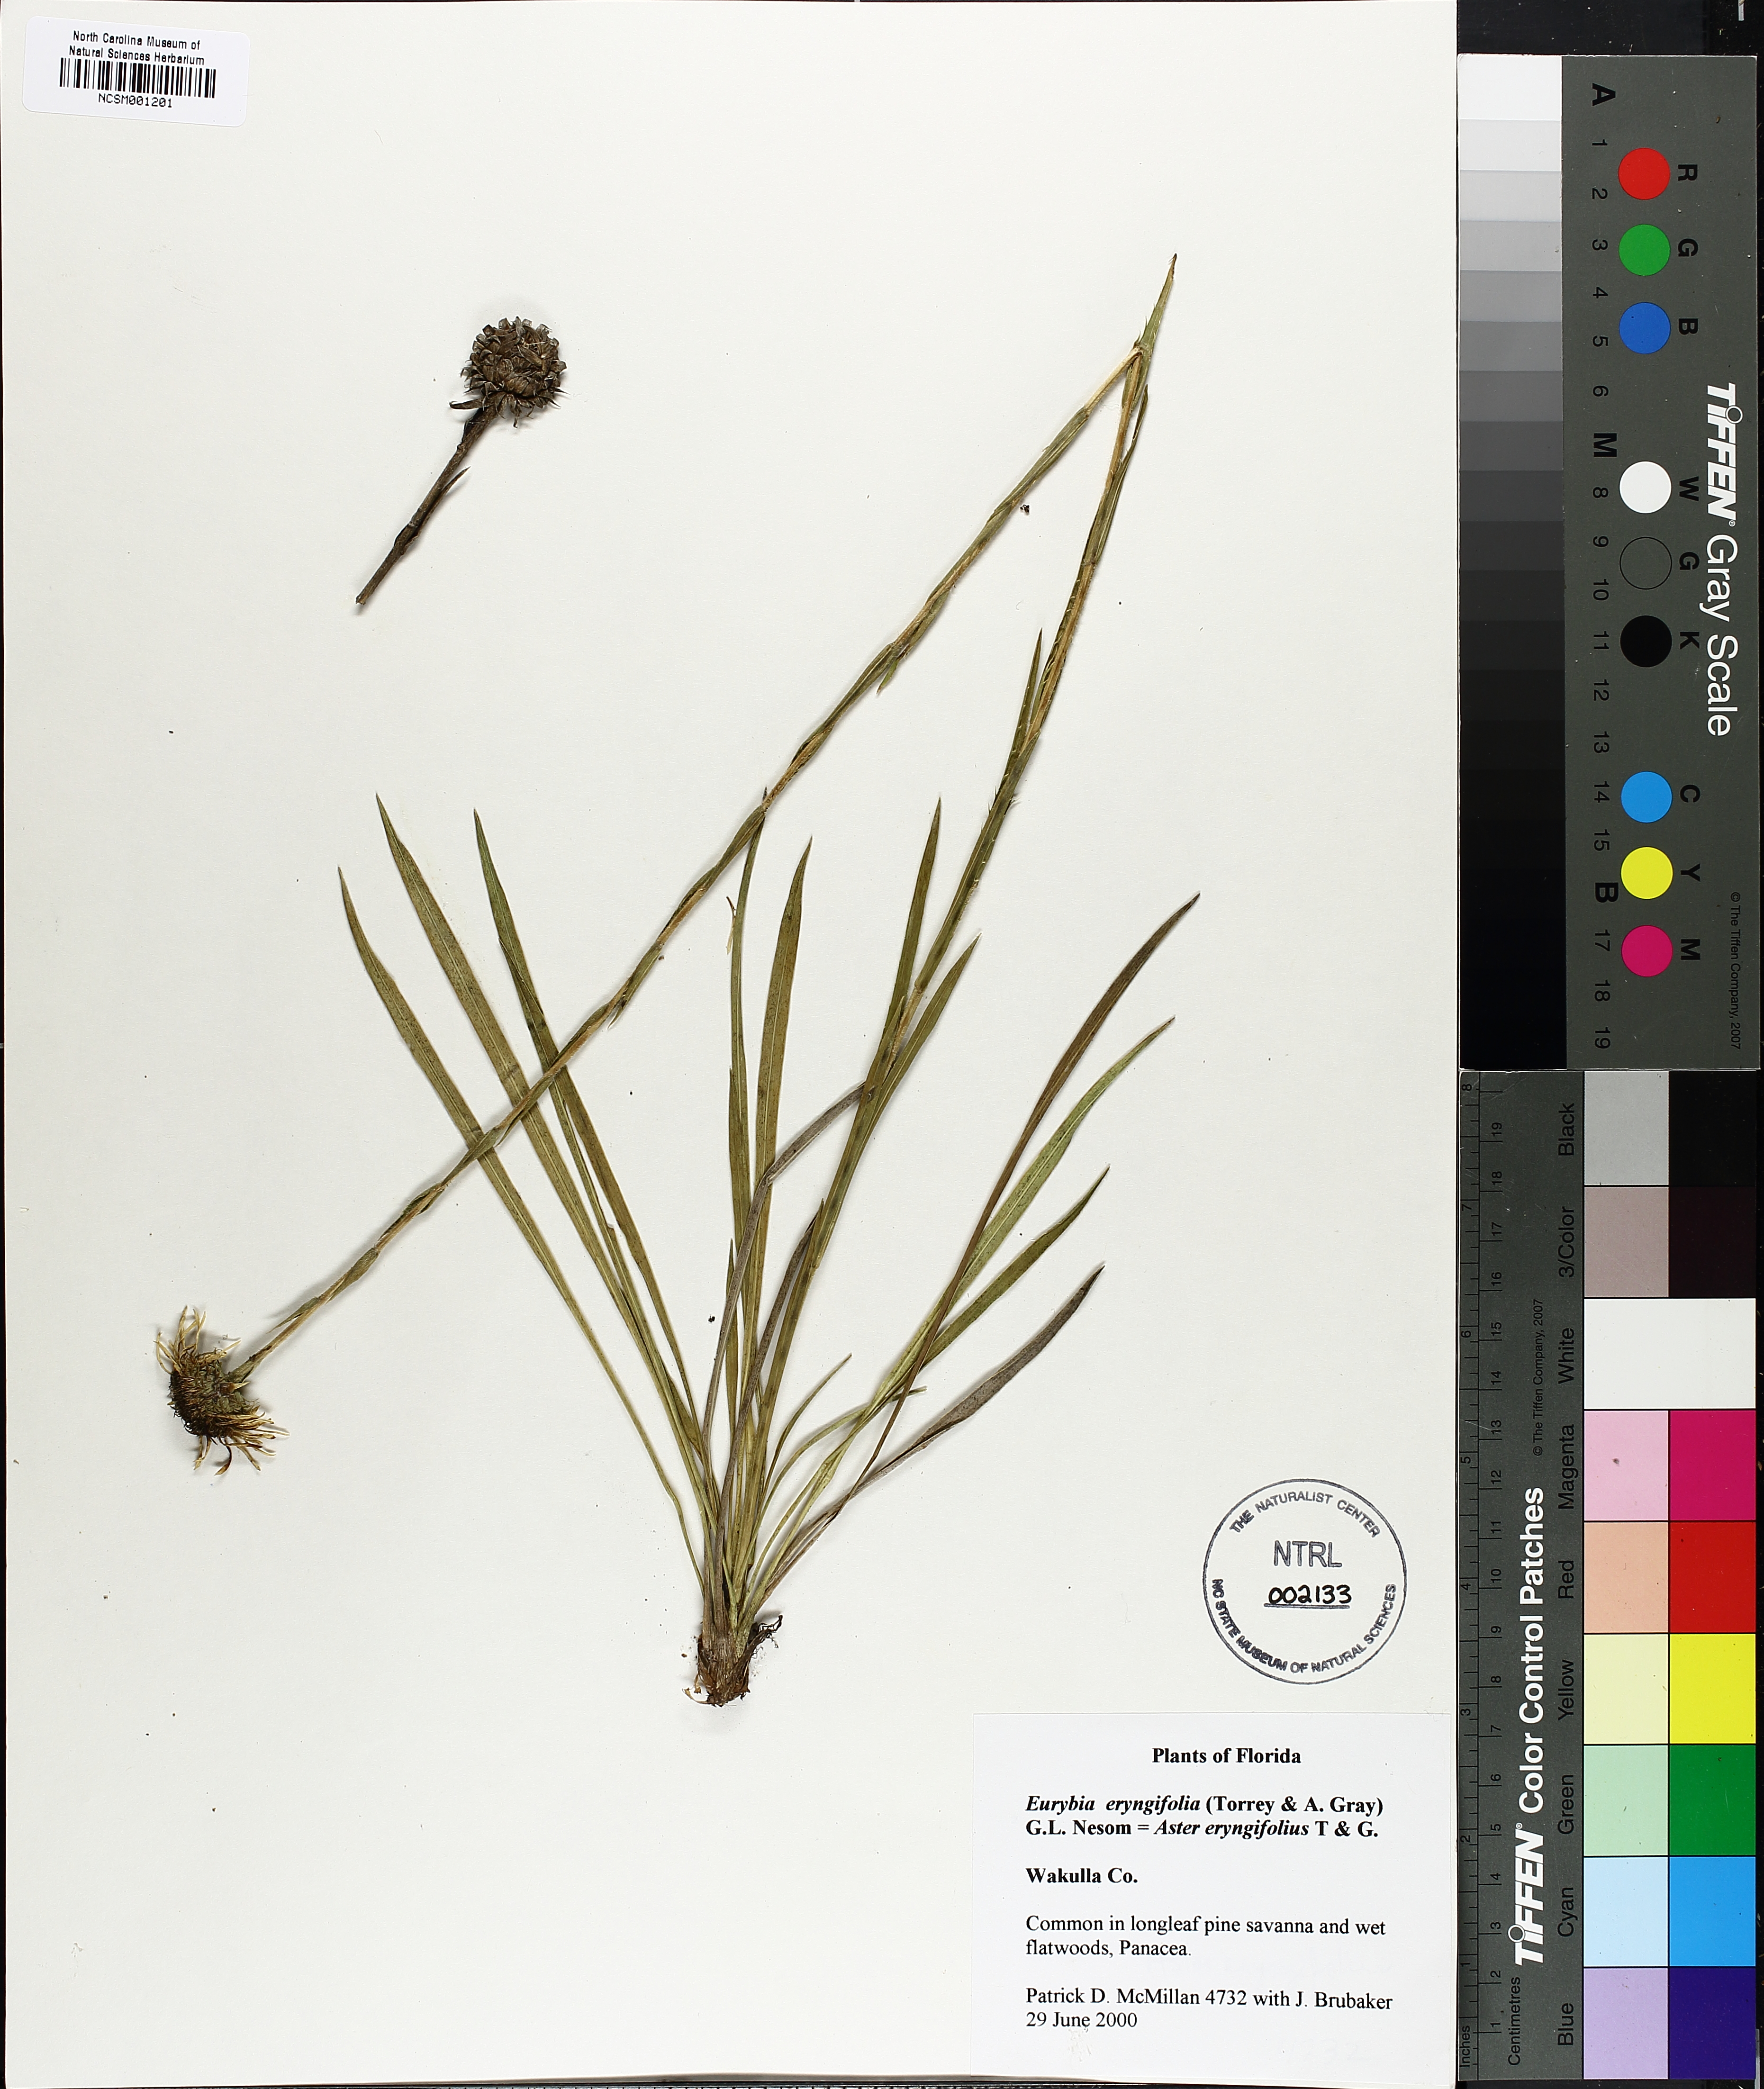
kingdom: Plantae
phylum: Tracheophyta
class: Magnoliopsida
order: Asterales
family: Asteraceae
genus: Eurybia
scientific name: Eurybia eryngiifolia
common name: Thistle-leaf aster
